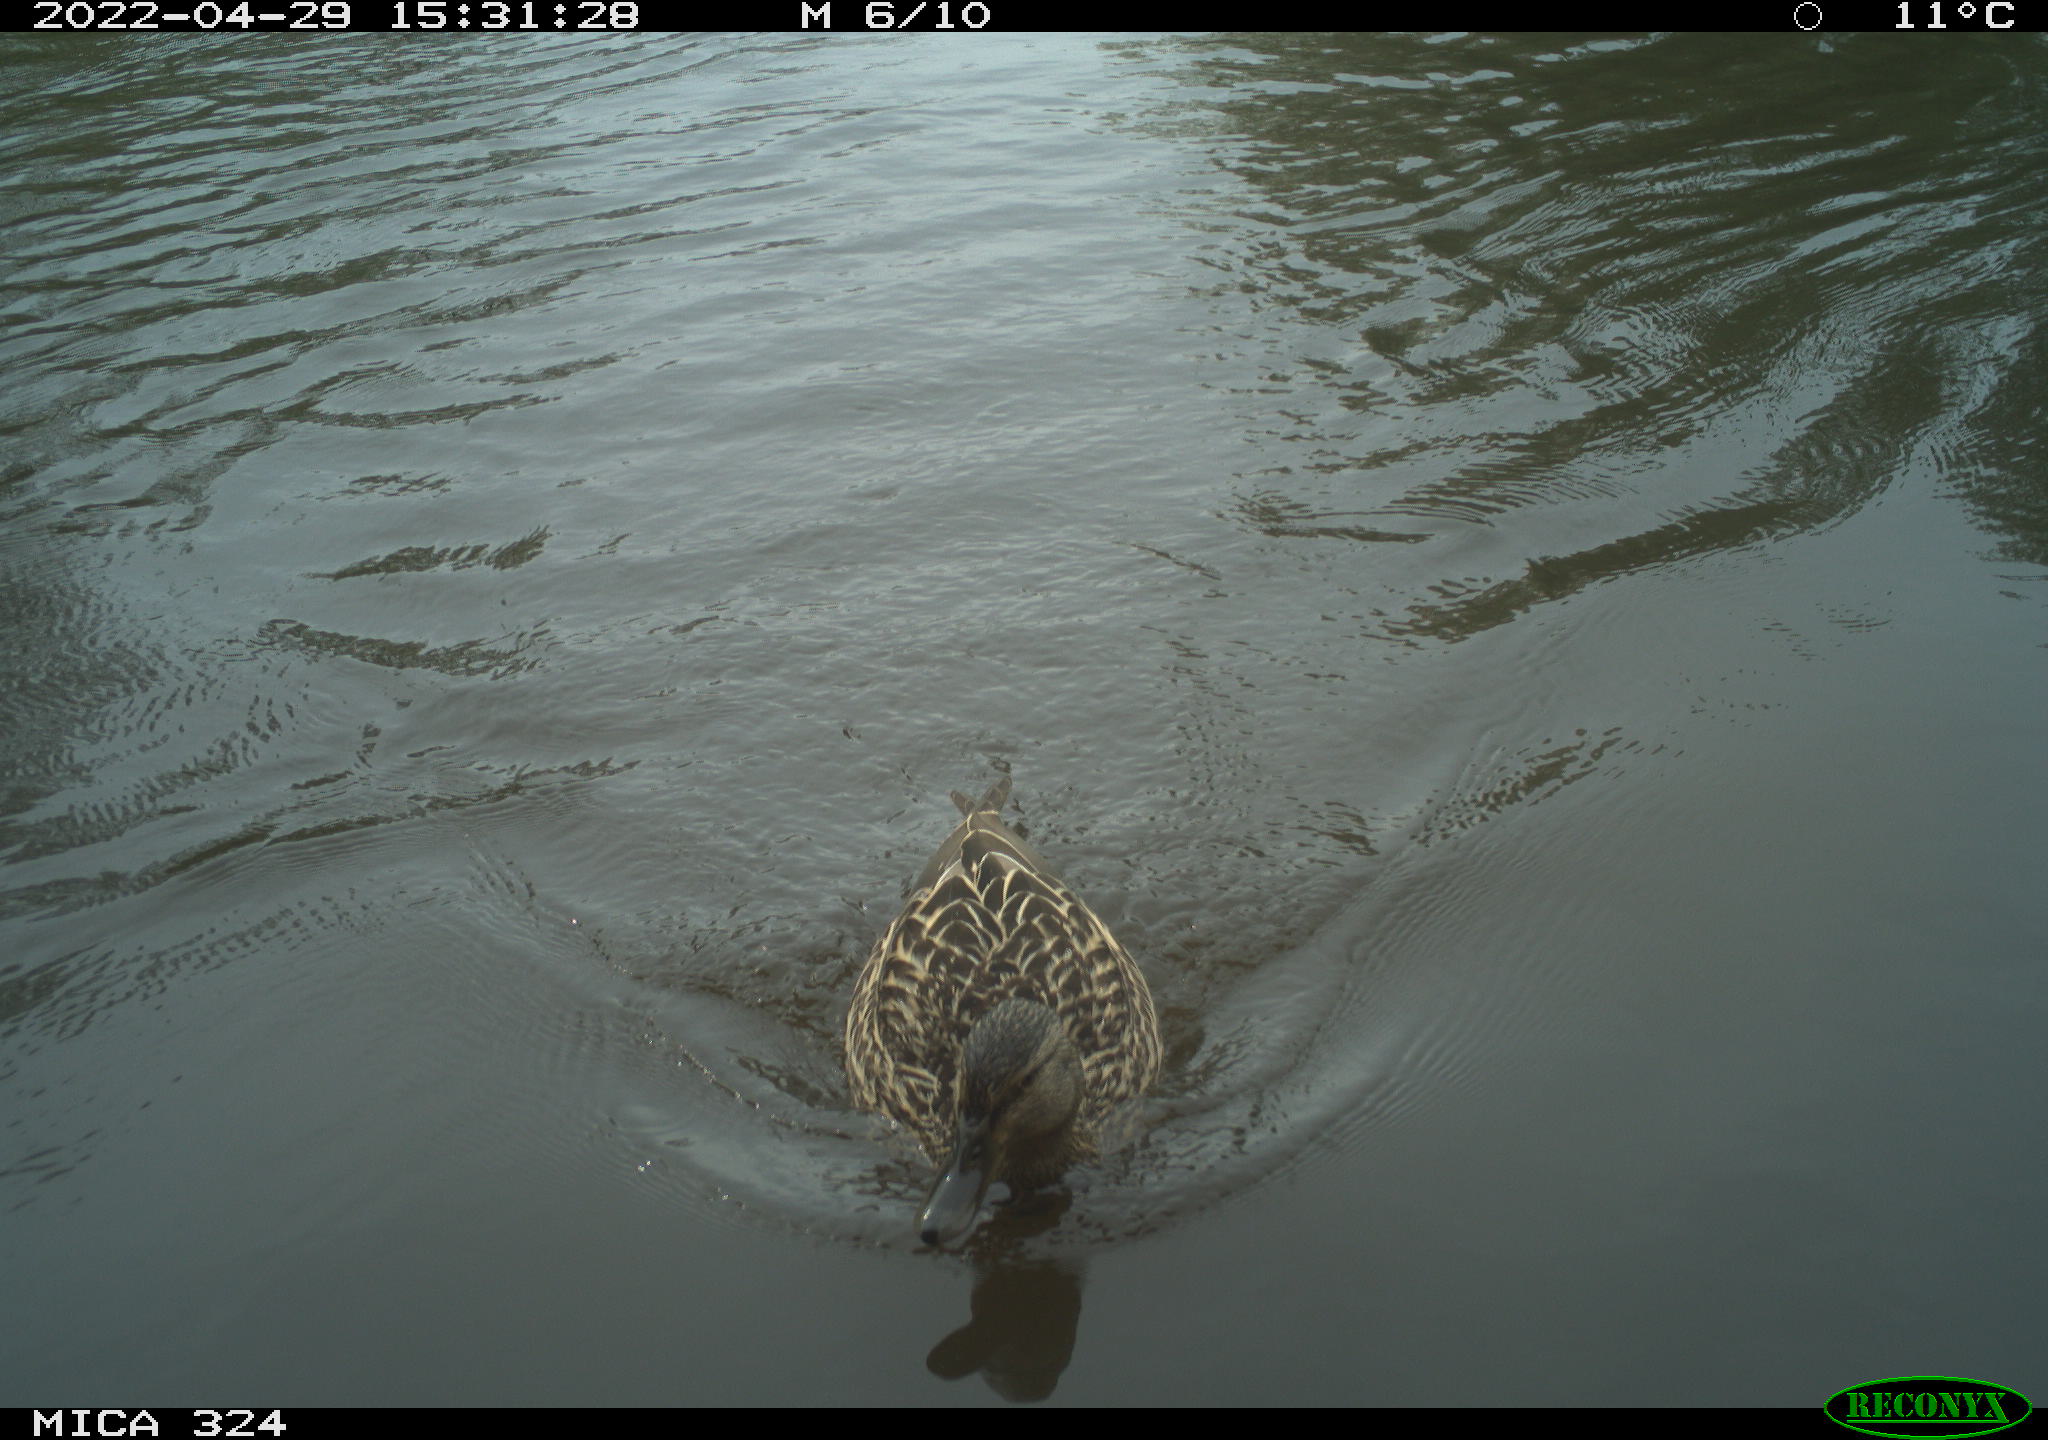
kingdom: Animalia
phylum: Chordata
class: Aves
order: Anseriformes
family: Anatidae
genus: Anas
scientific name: Anas platyrhynchos
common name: Mallard
